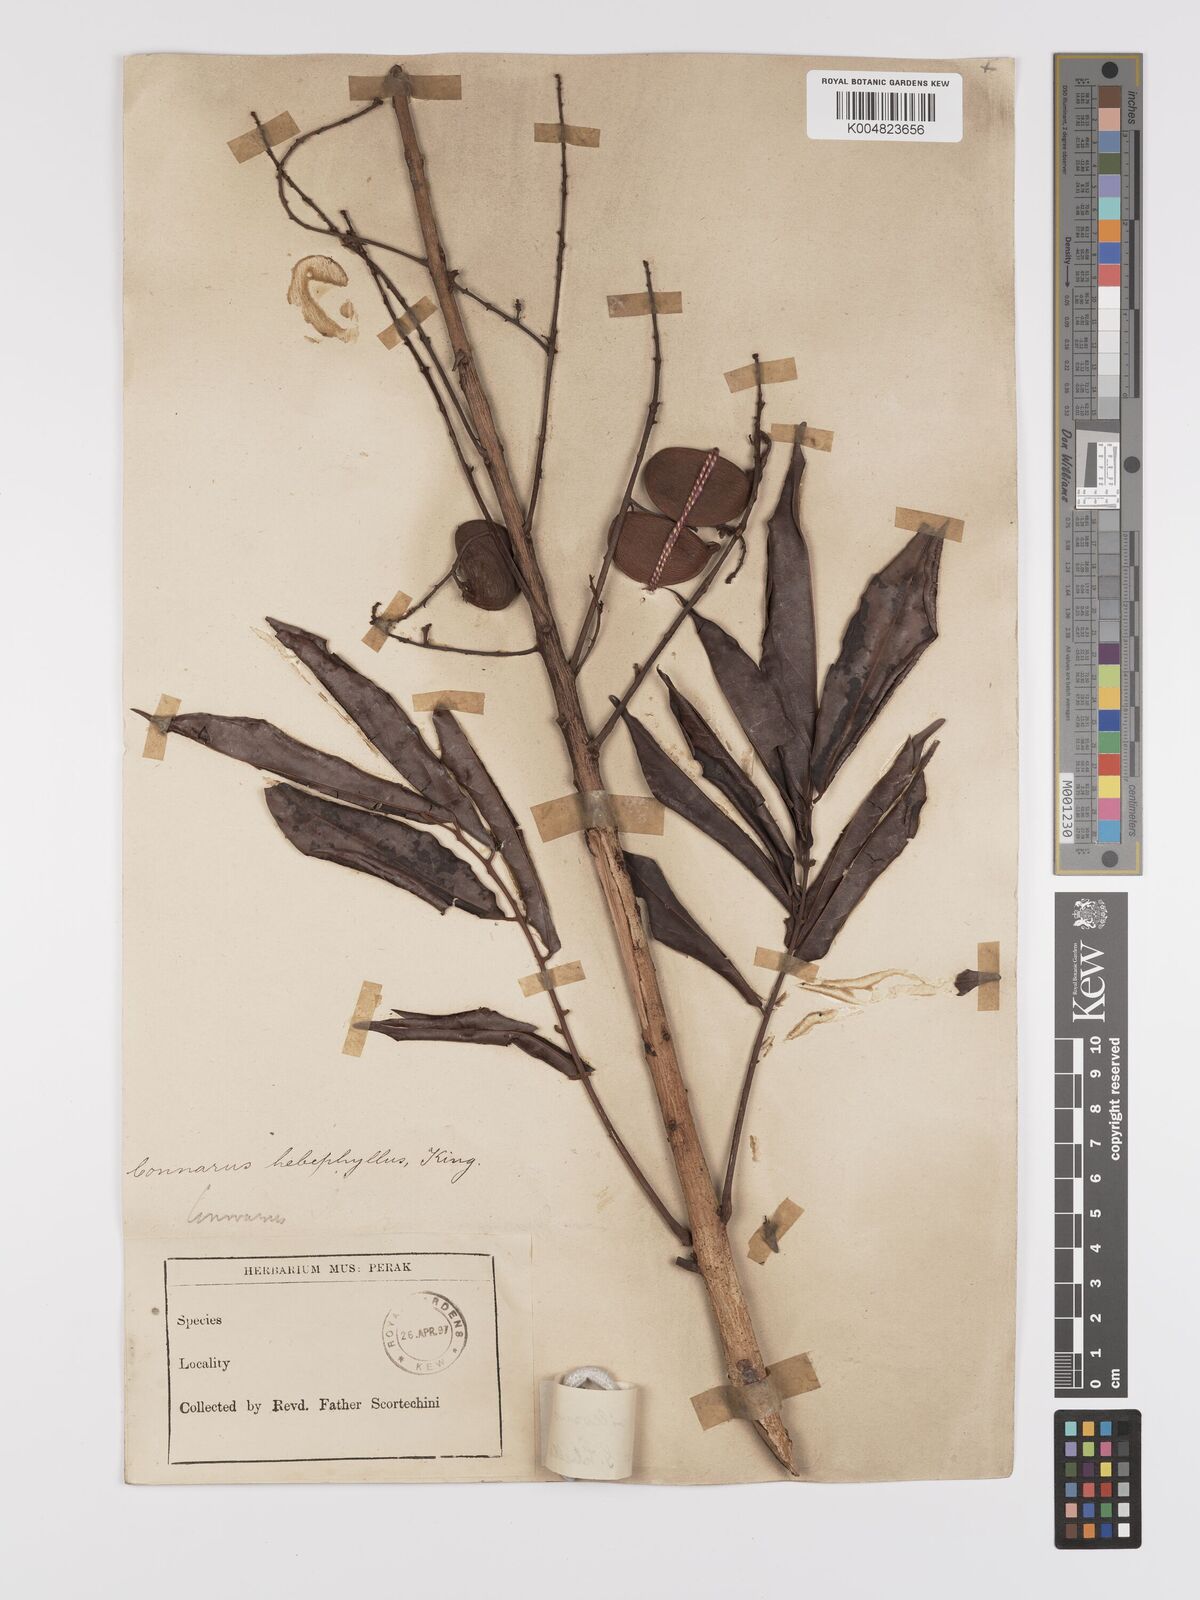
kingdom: Plantae
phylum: Tracheophyta
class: Magnoliopsida
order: Oxalidales
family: Connaraceae
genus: Connarus
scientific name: Connarus
